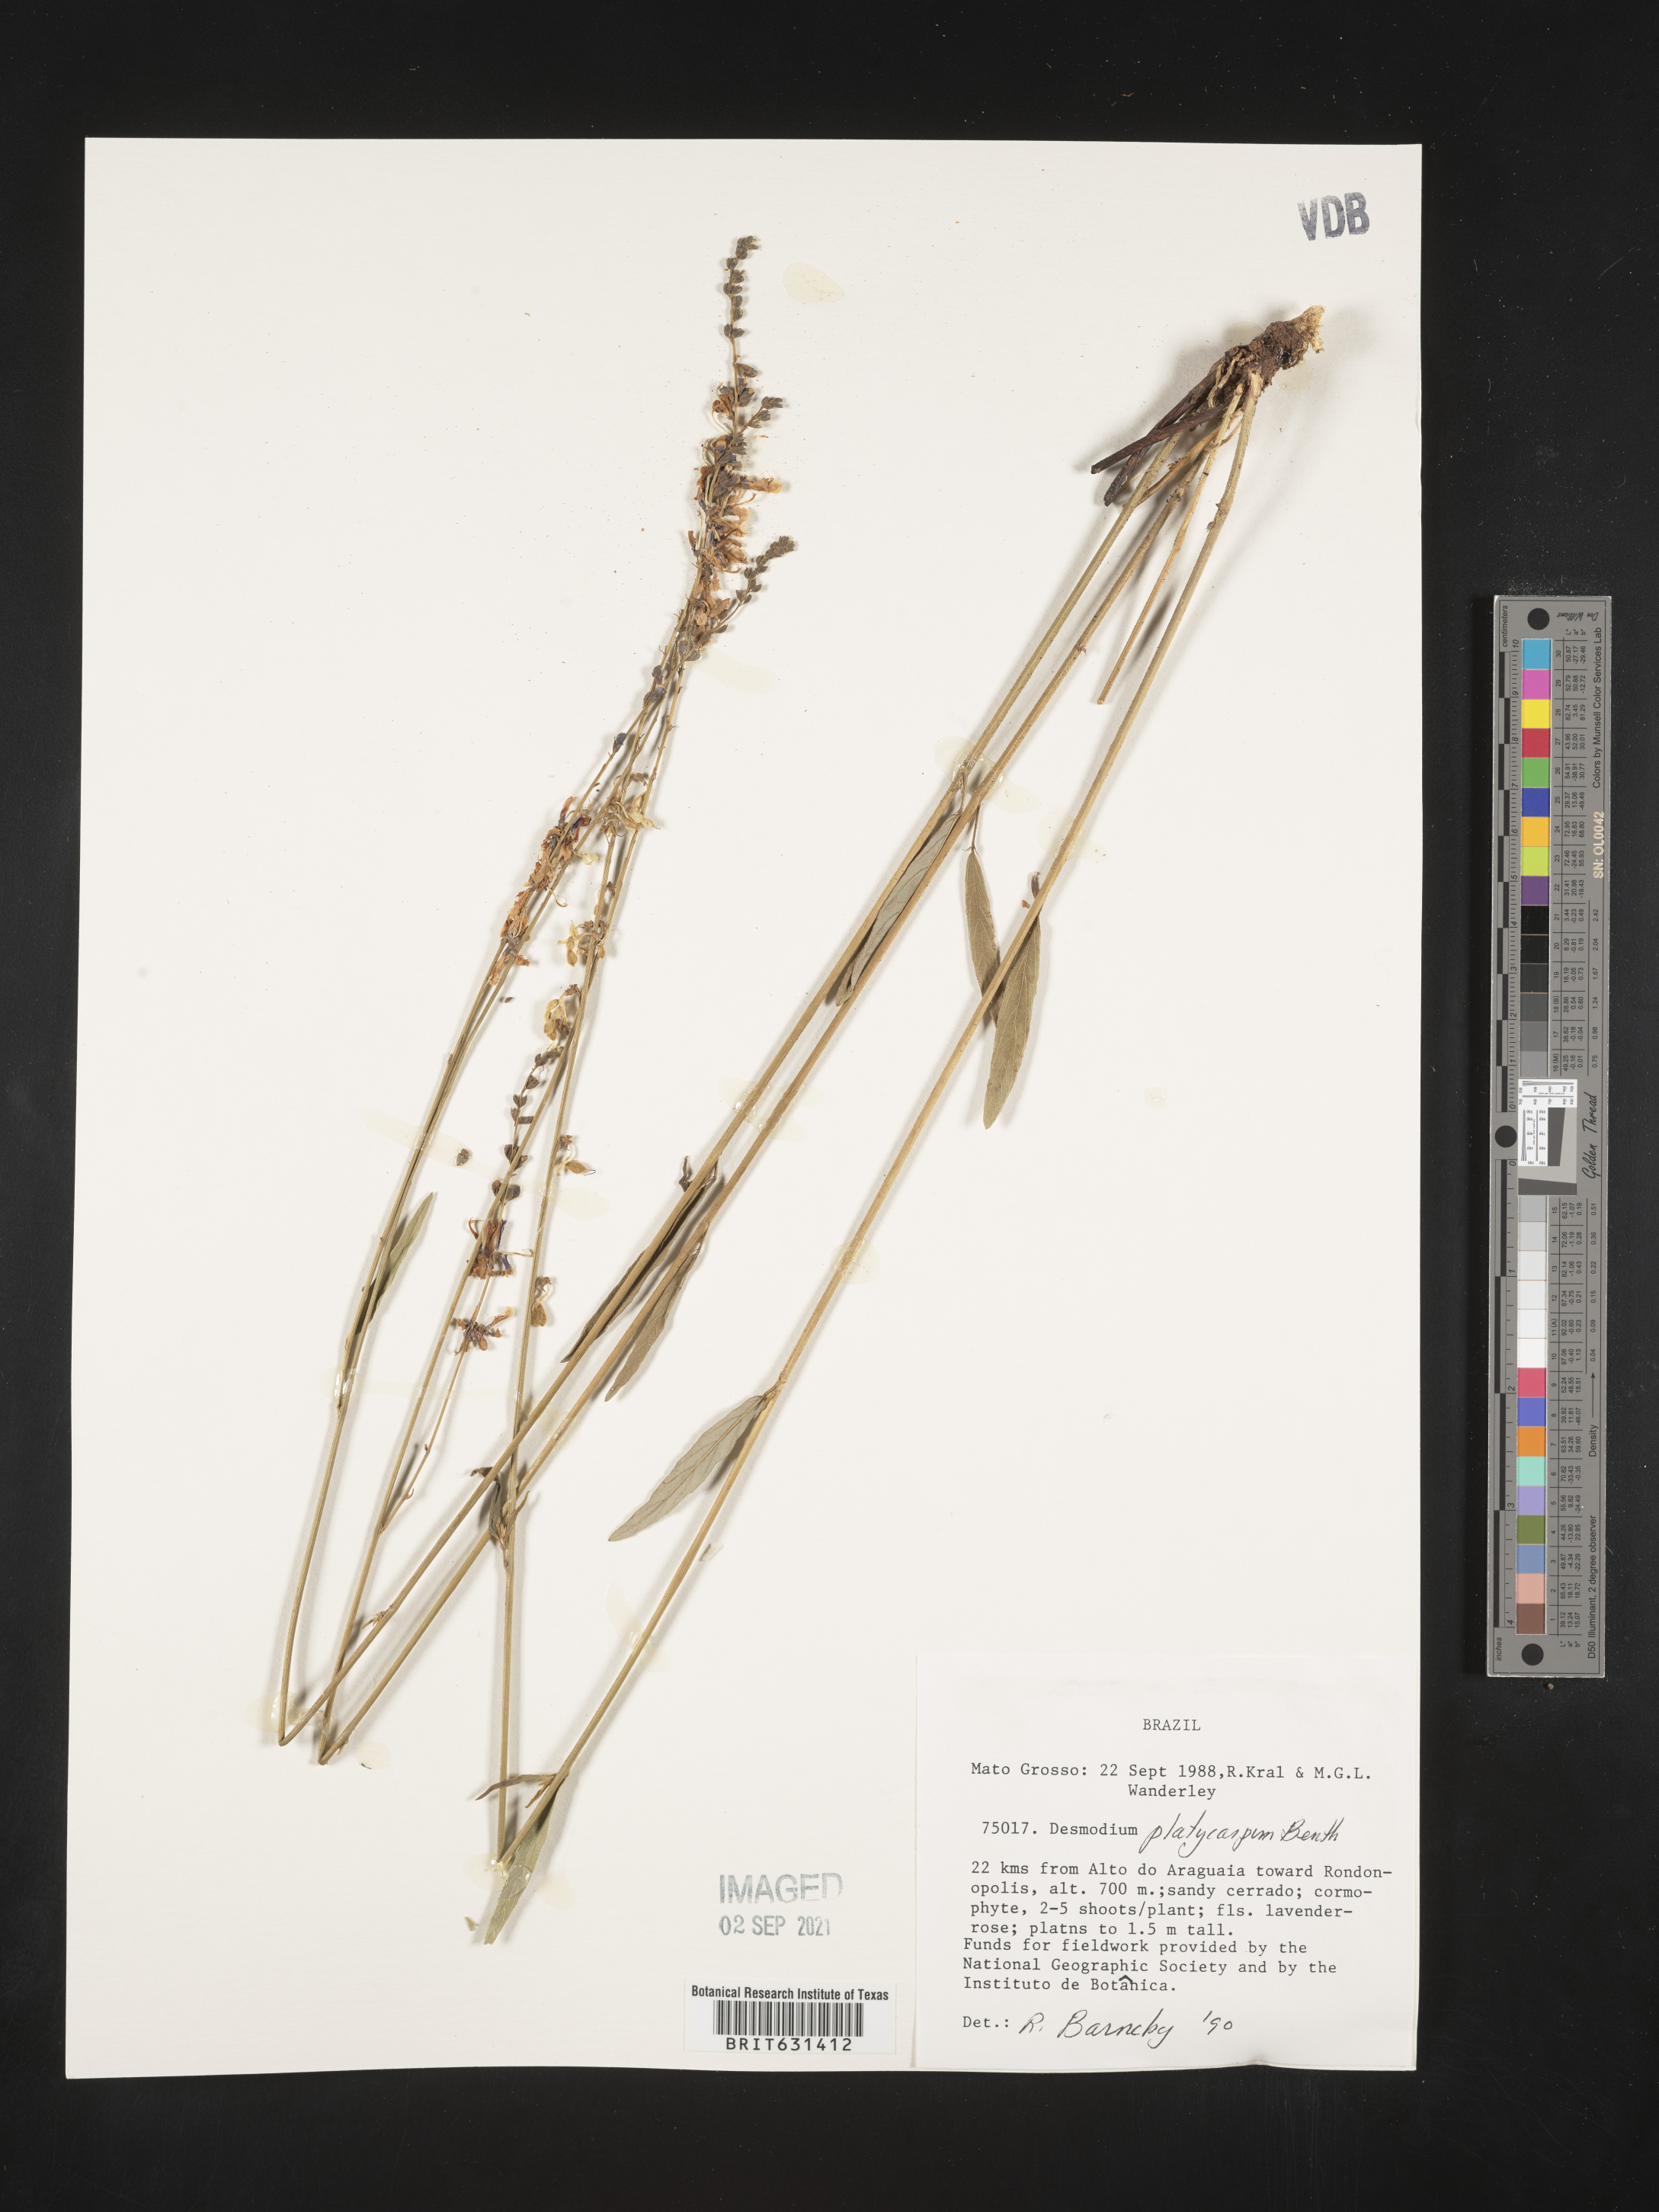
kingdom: Plantae
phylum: Tracheophyta
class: Magnoliopsida
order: Fabales
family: Fabaceae
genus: Desmodium
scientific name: Desmodium platycarpum
